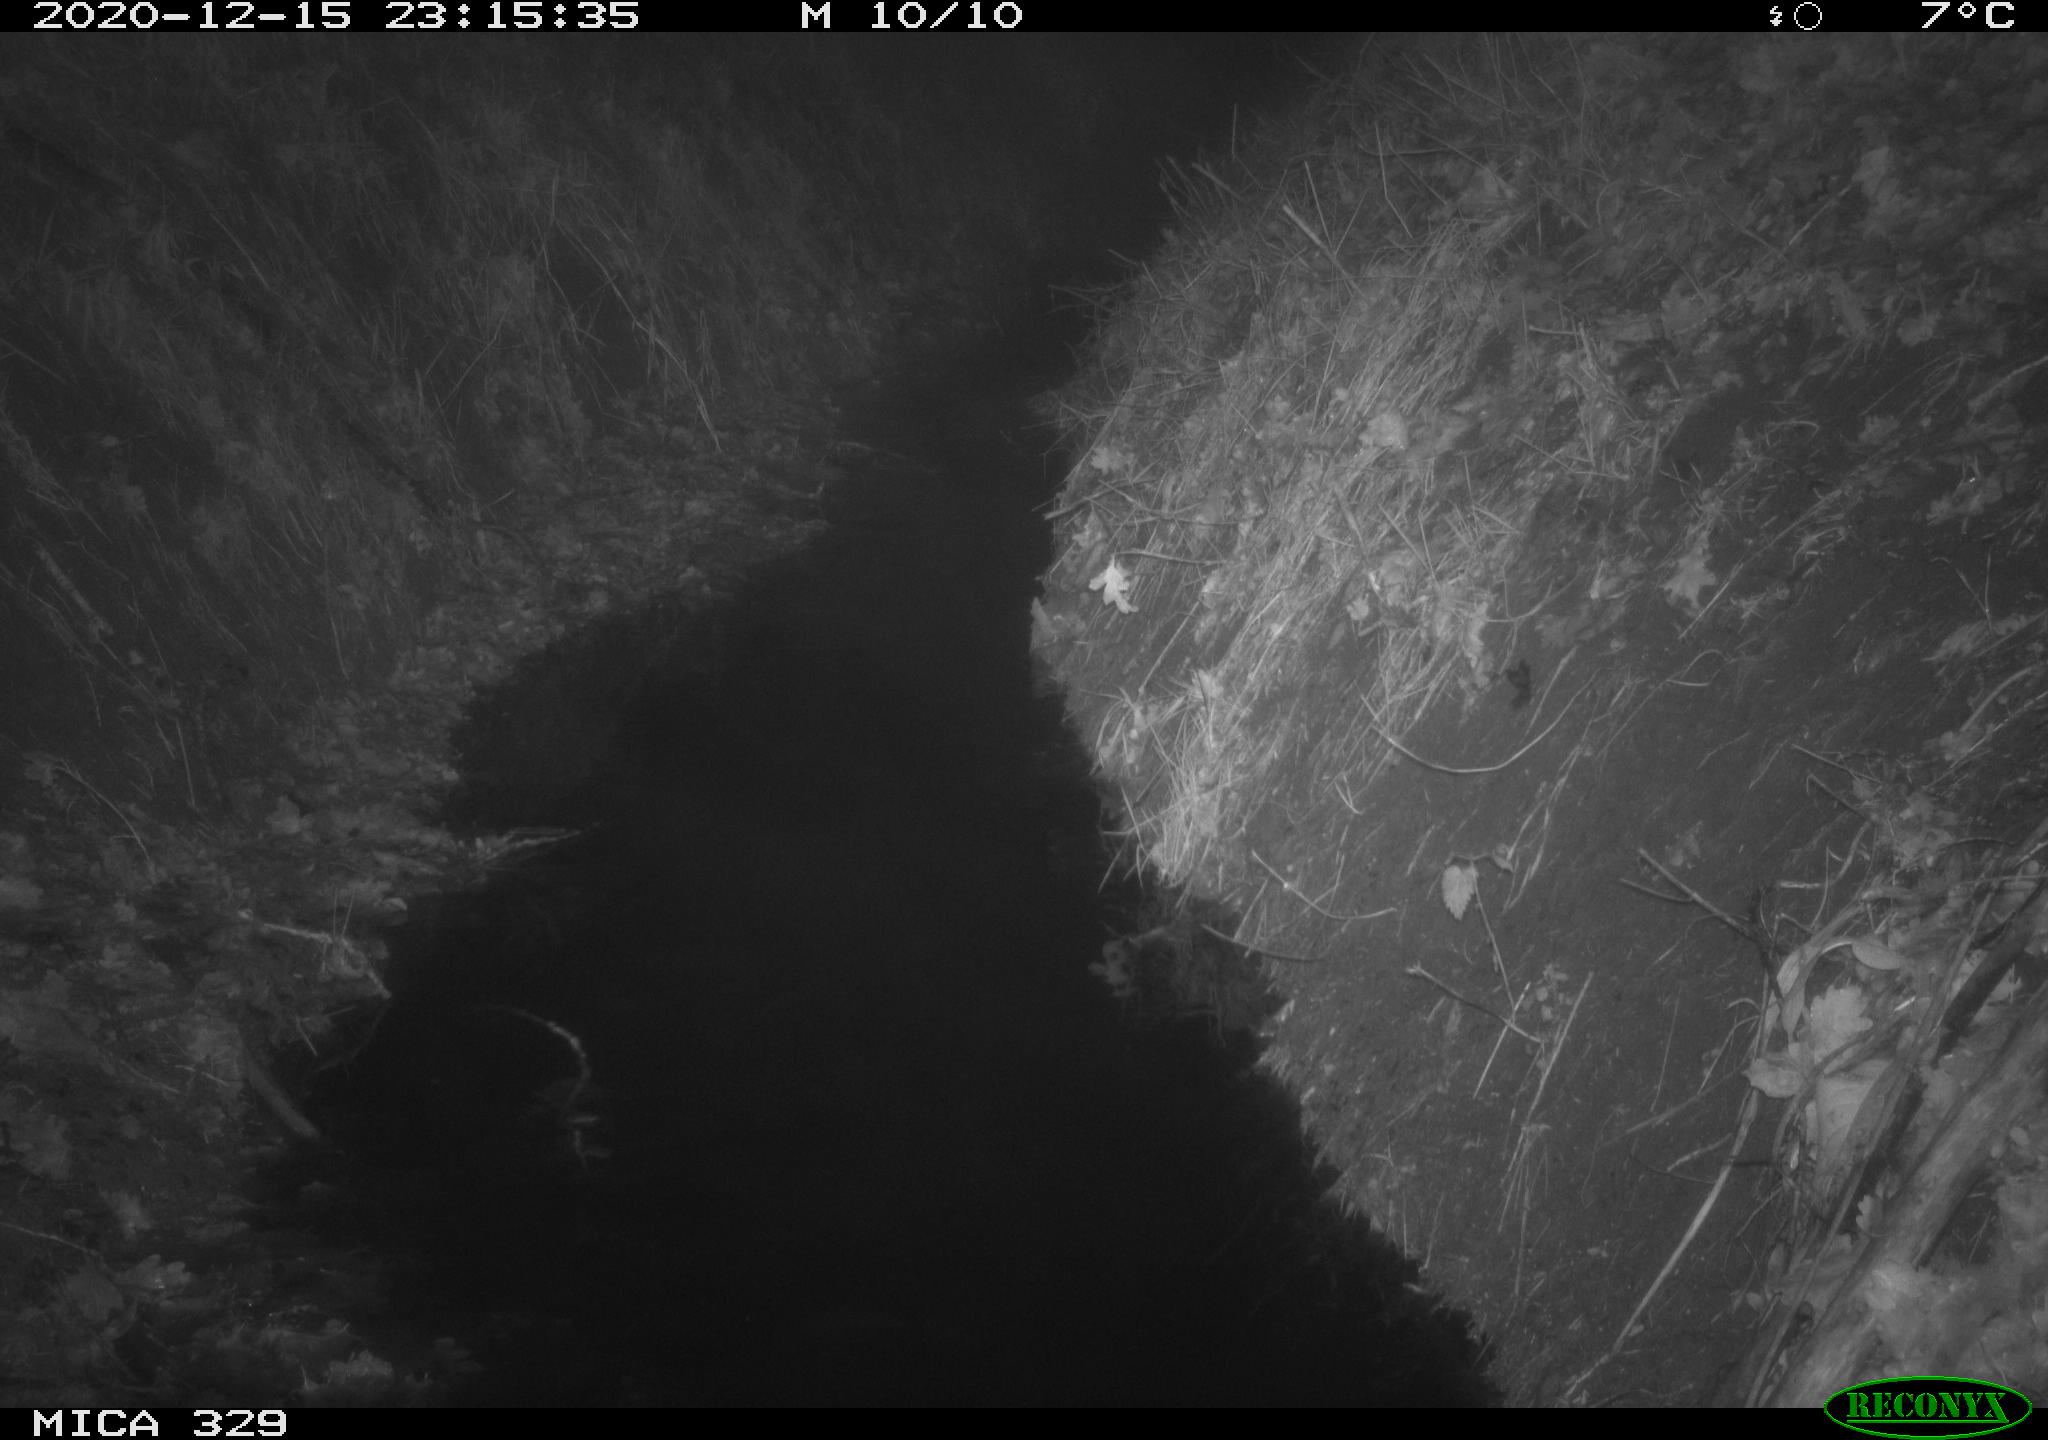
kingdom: Animalia
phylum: Chordata
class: Mammalia
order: Rodentia
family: Muridae
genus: Rattus
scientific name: Rattus norvegicus
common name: Brown rat
